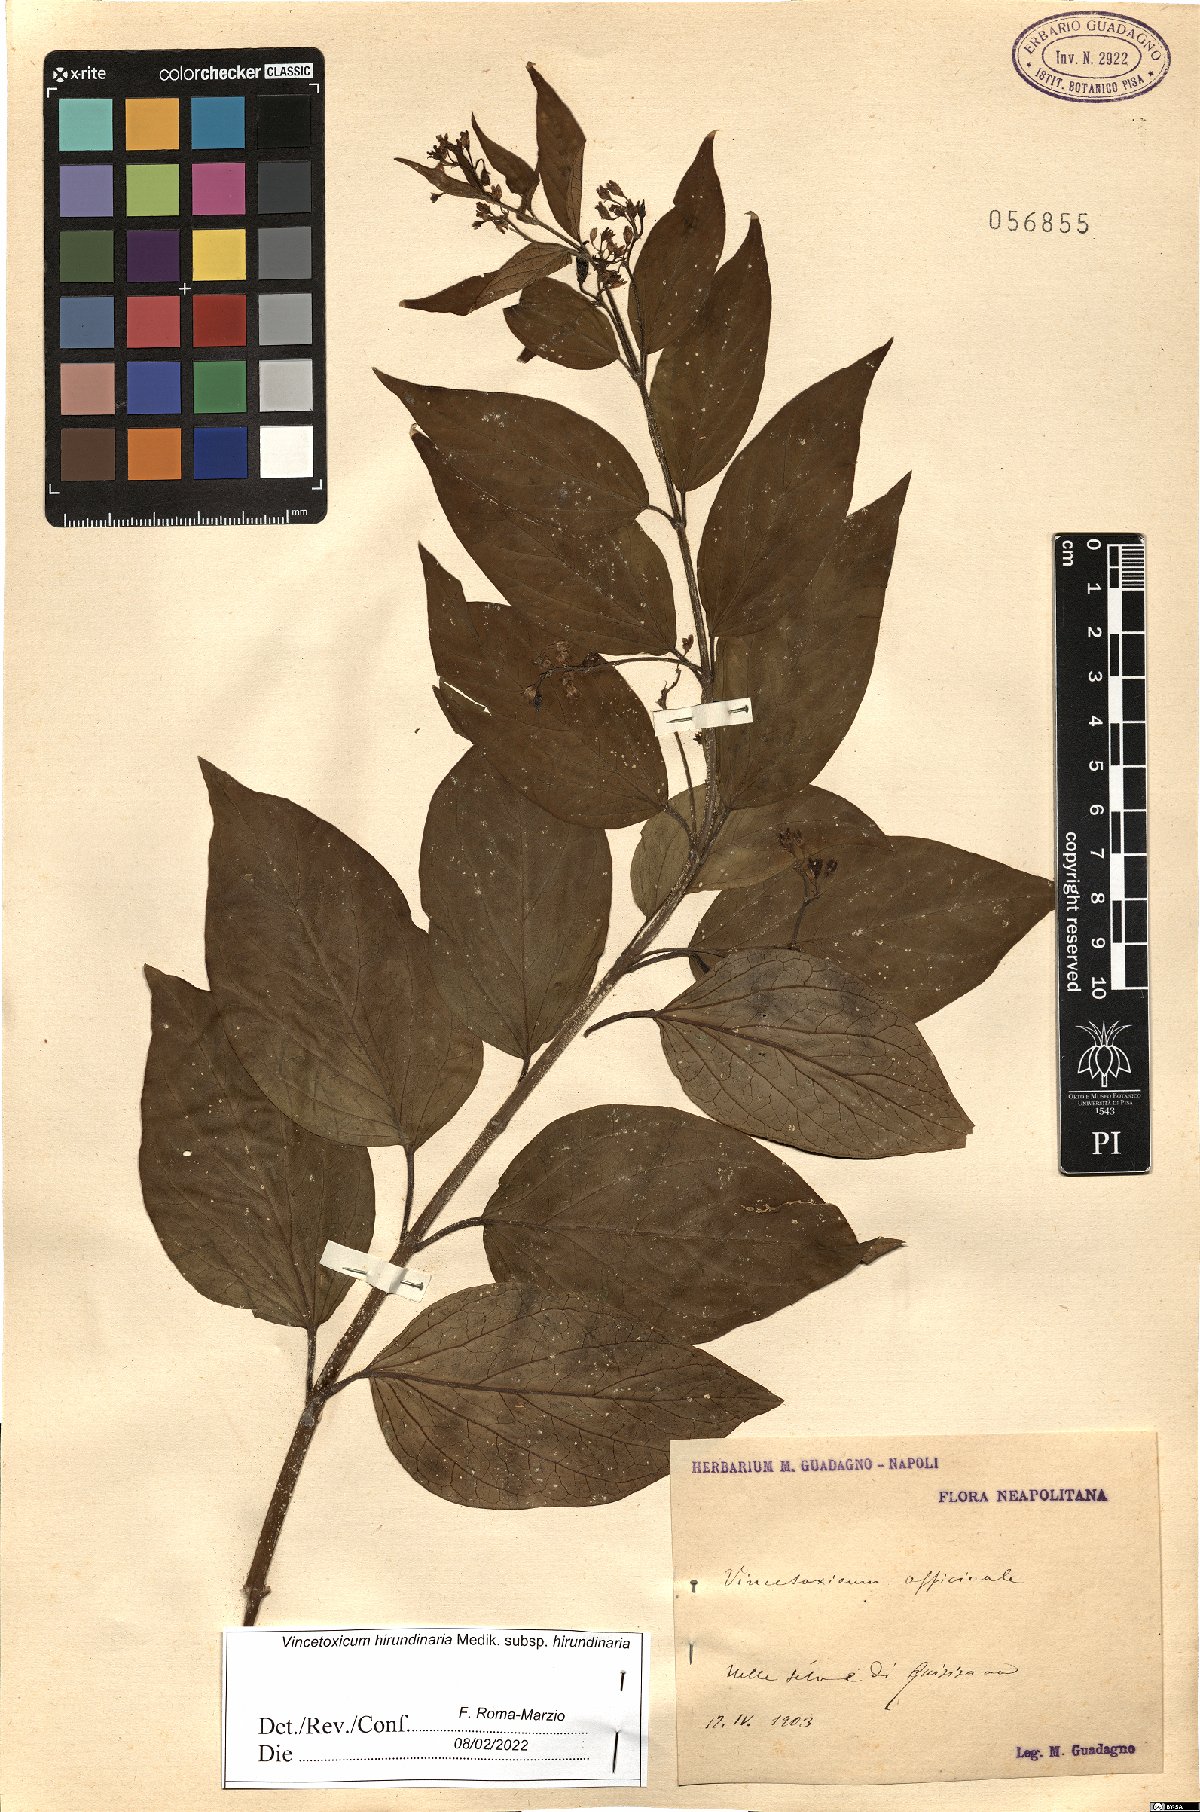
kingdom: Plantae
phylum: Tracheophyta
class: Magnoliopsida
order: Gentianales
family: Apocynaceae
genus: Vincetoxicum
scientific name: Vincetoxicum hirundinaria
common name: White swallowwort
